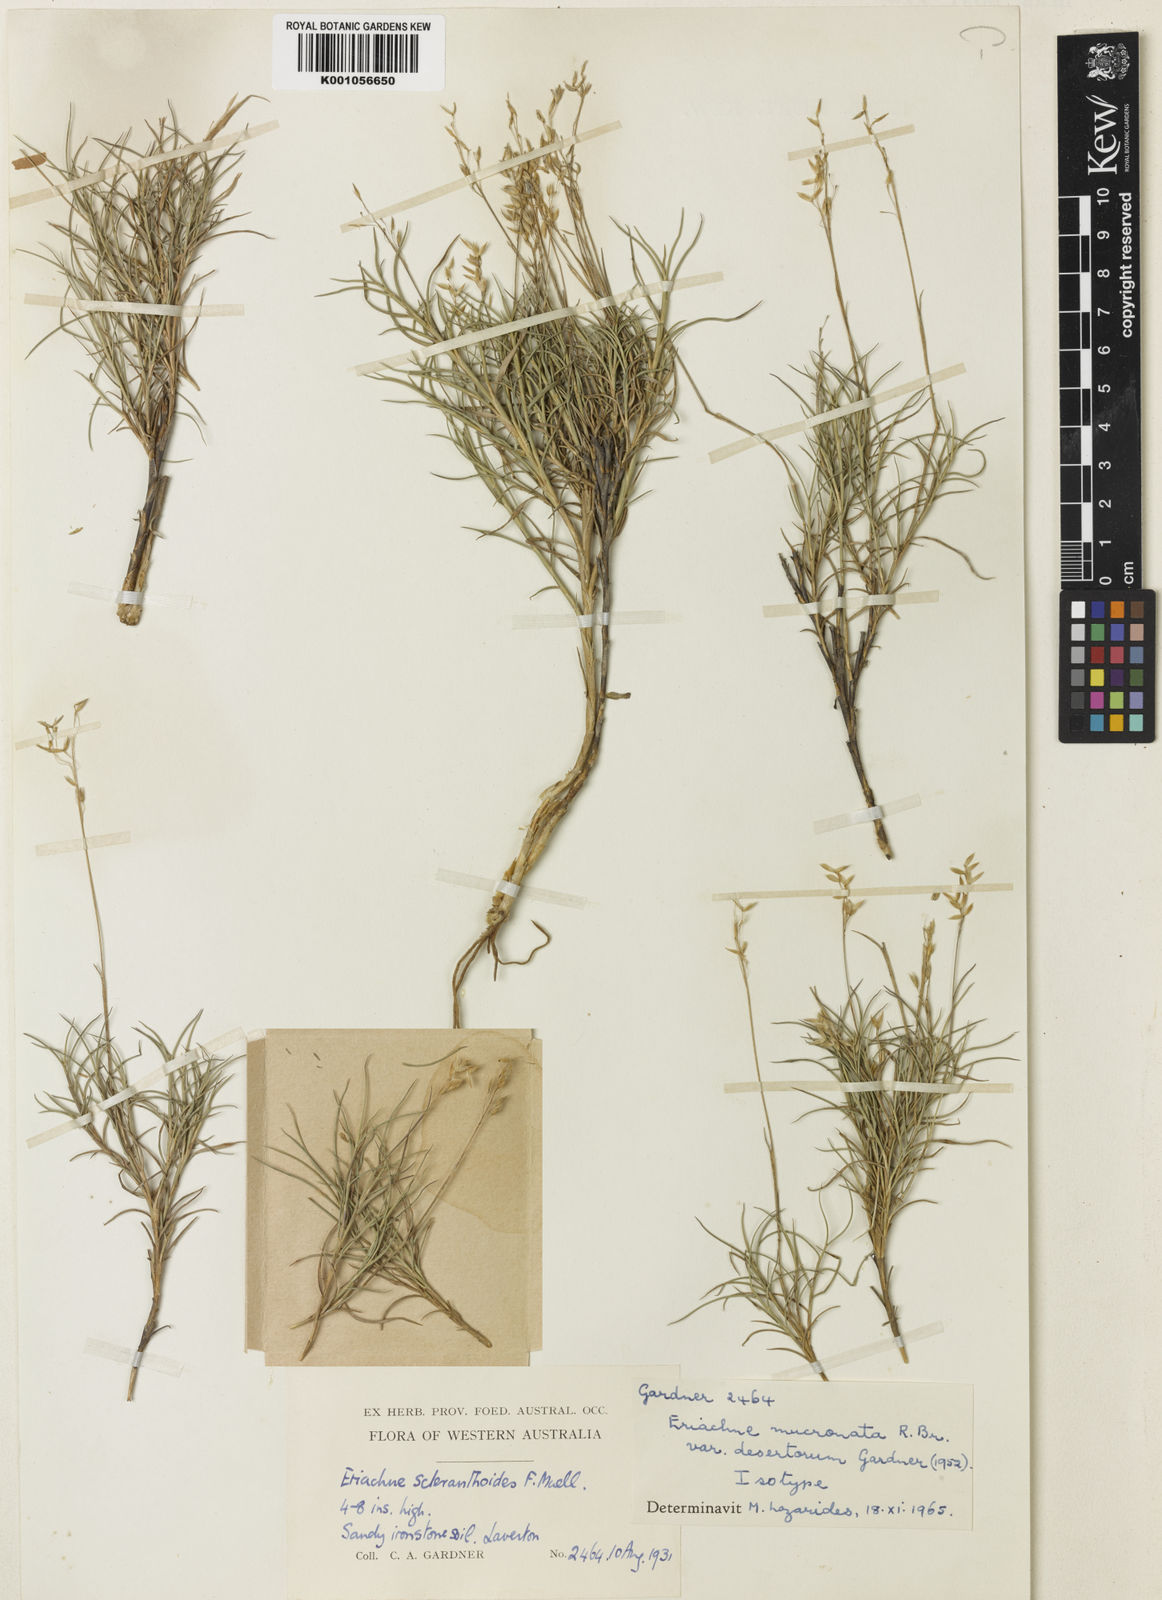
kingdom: Plantae
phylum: Tracheophyta
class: Liliopsida
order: Poales
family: Poaceae
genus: Eriachne
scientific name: Eriachne scleranthoides
